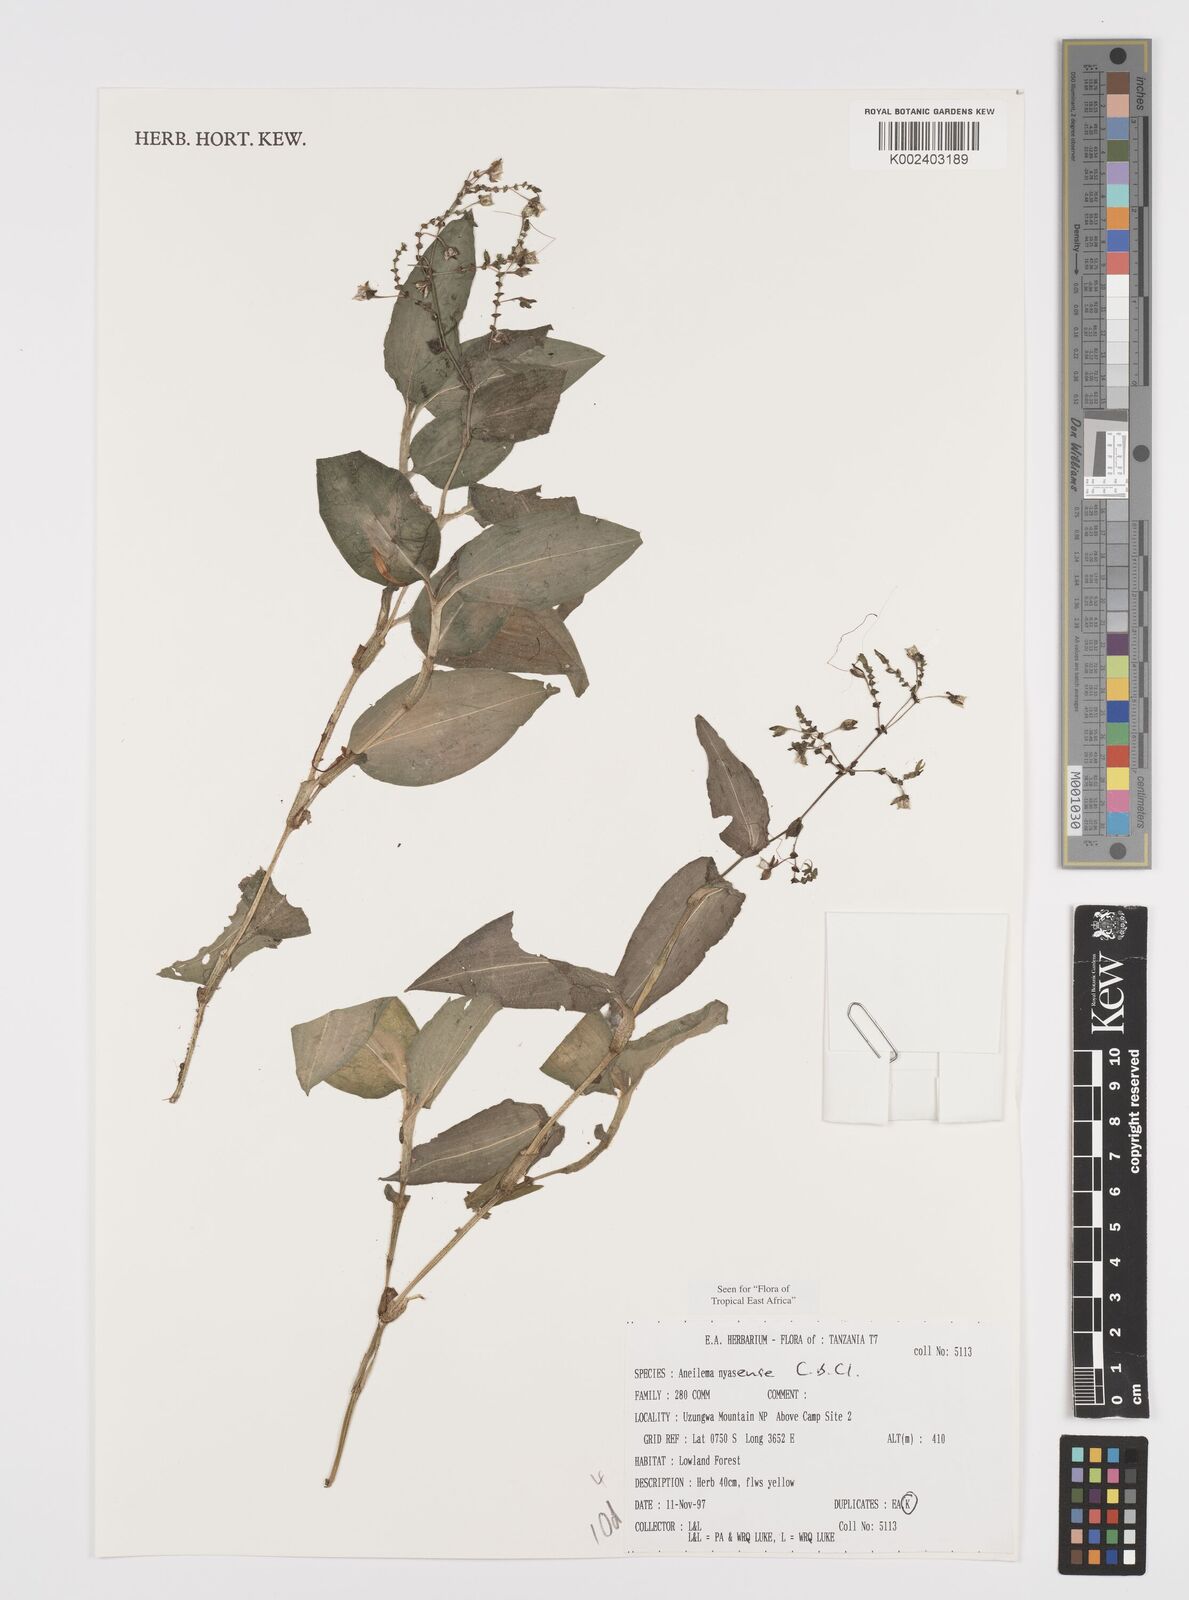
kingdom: Plantae
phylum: Tracheophyta
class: Liliopsida
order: Commelinales
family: Commelinaceae
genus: Aneilema
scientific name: Aneilema nyasense
